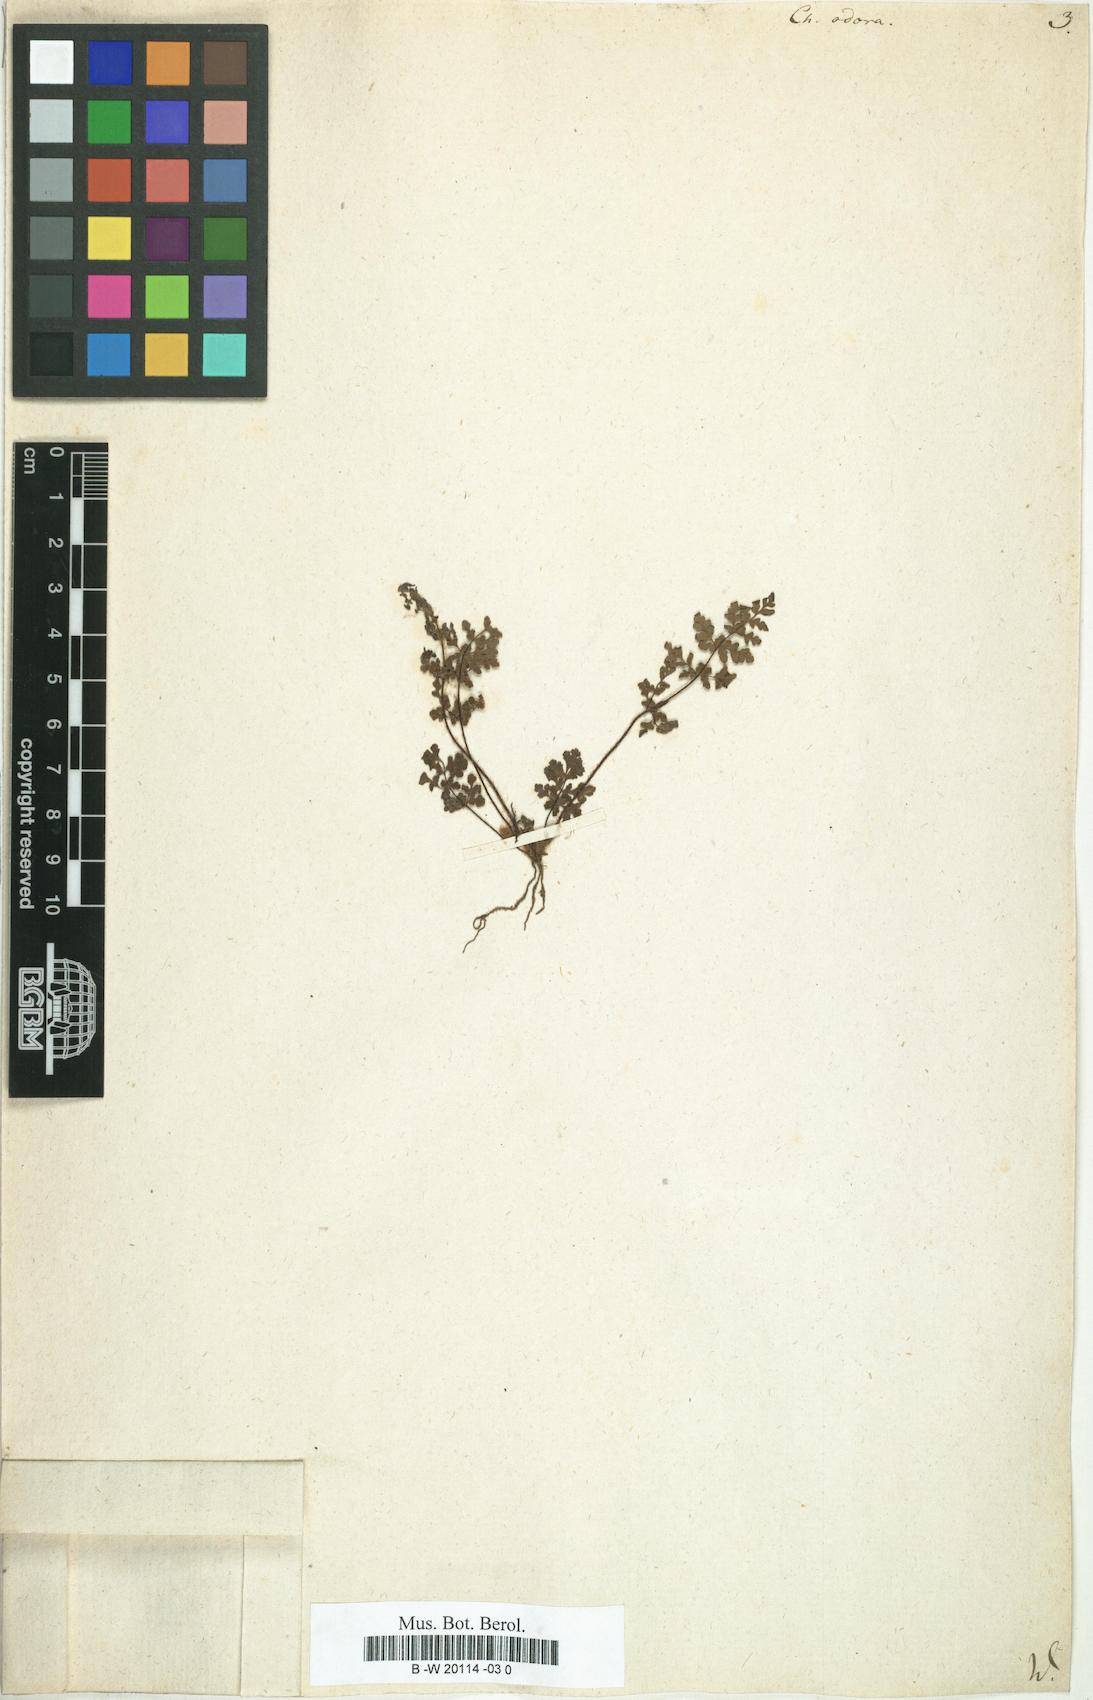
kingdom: Plantae
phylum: Tracheophyta
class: Polypodiopsida
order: Polypodiales
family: Pteridaceae
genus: Oeosporangium
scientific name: Oeosporangium pteridioides
